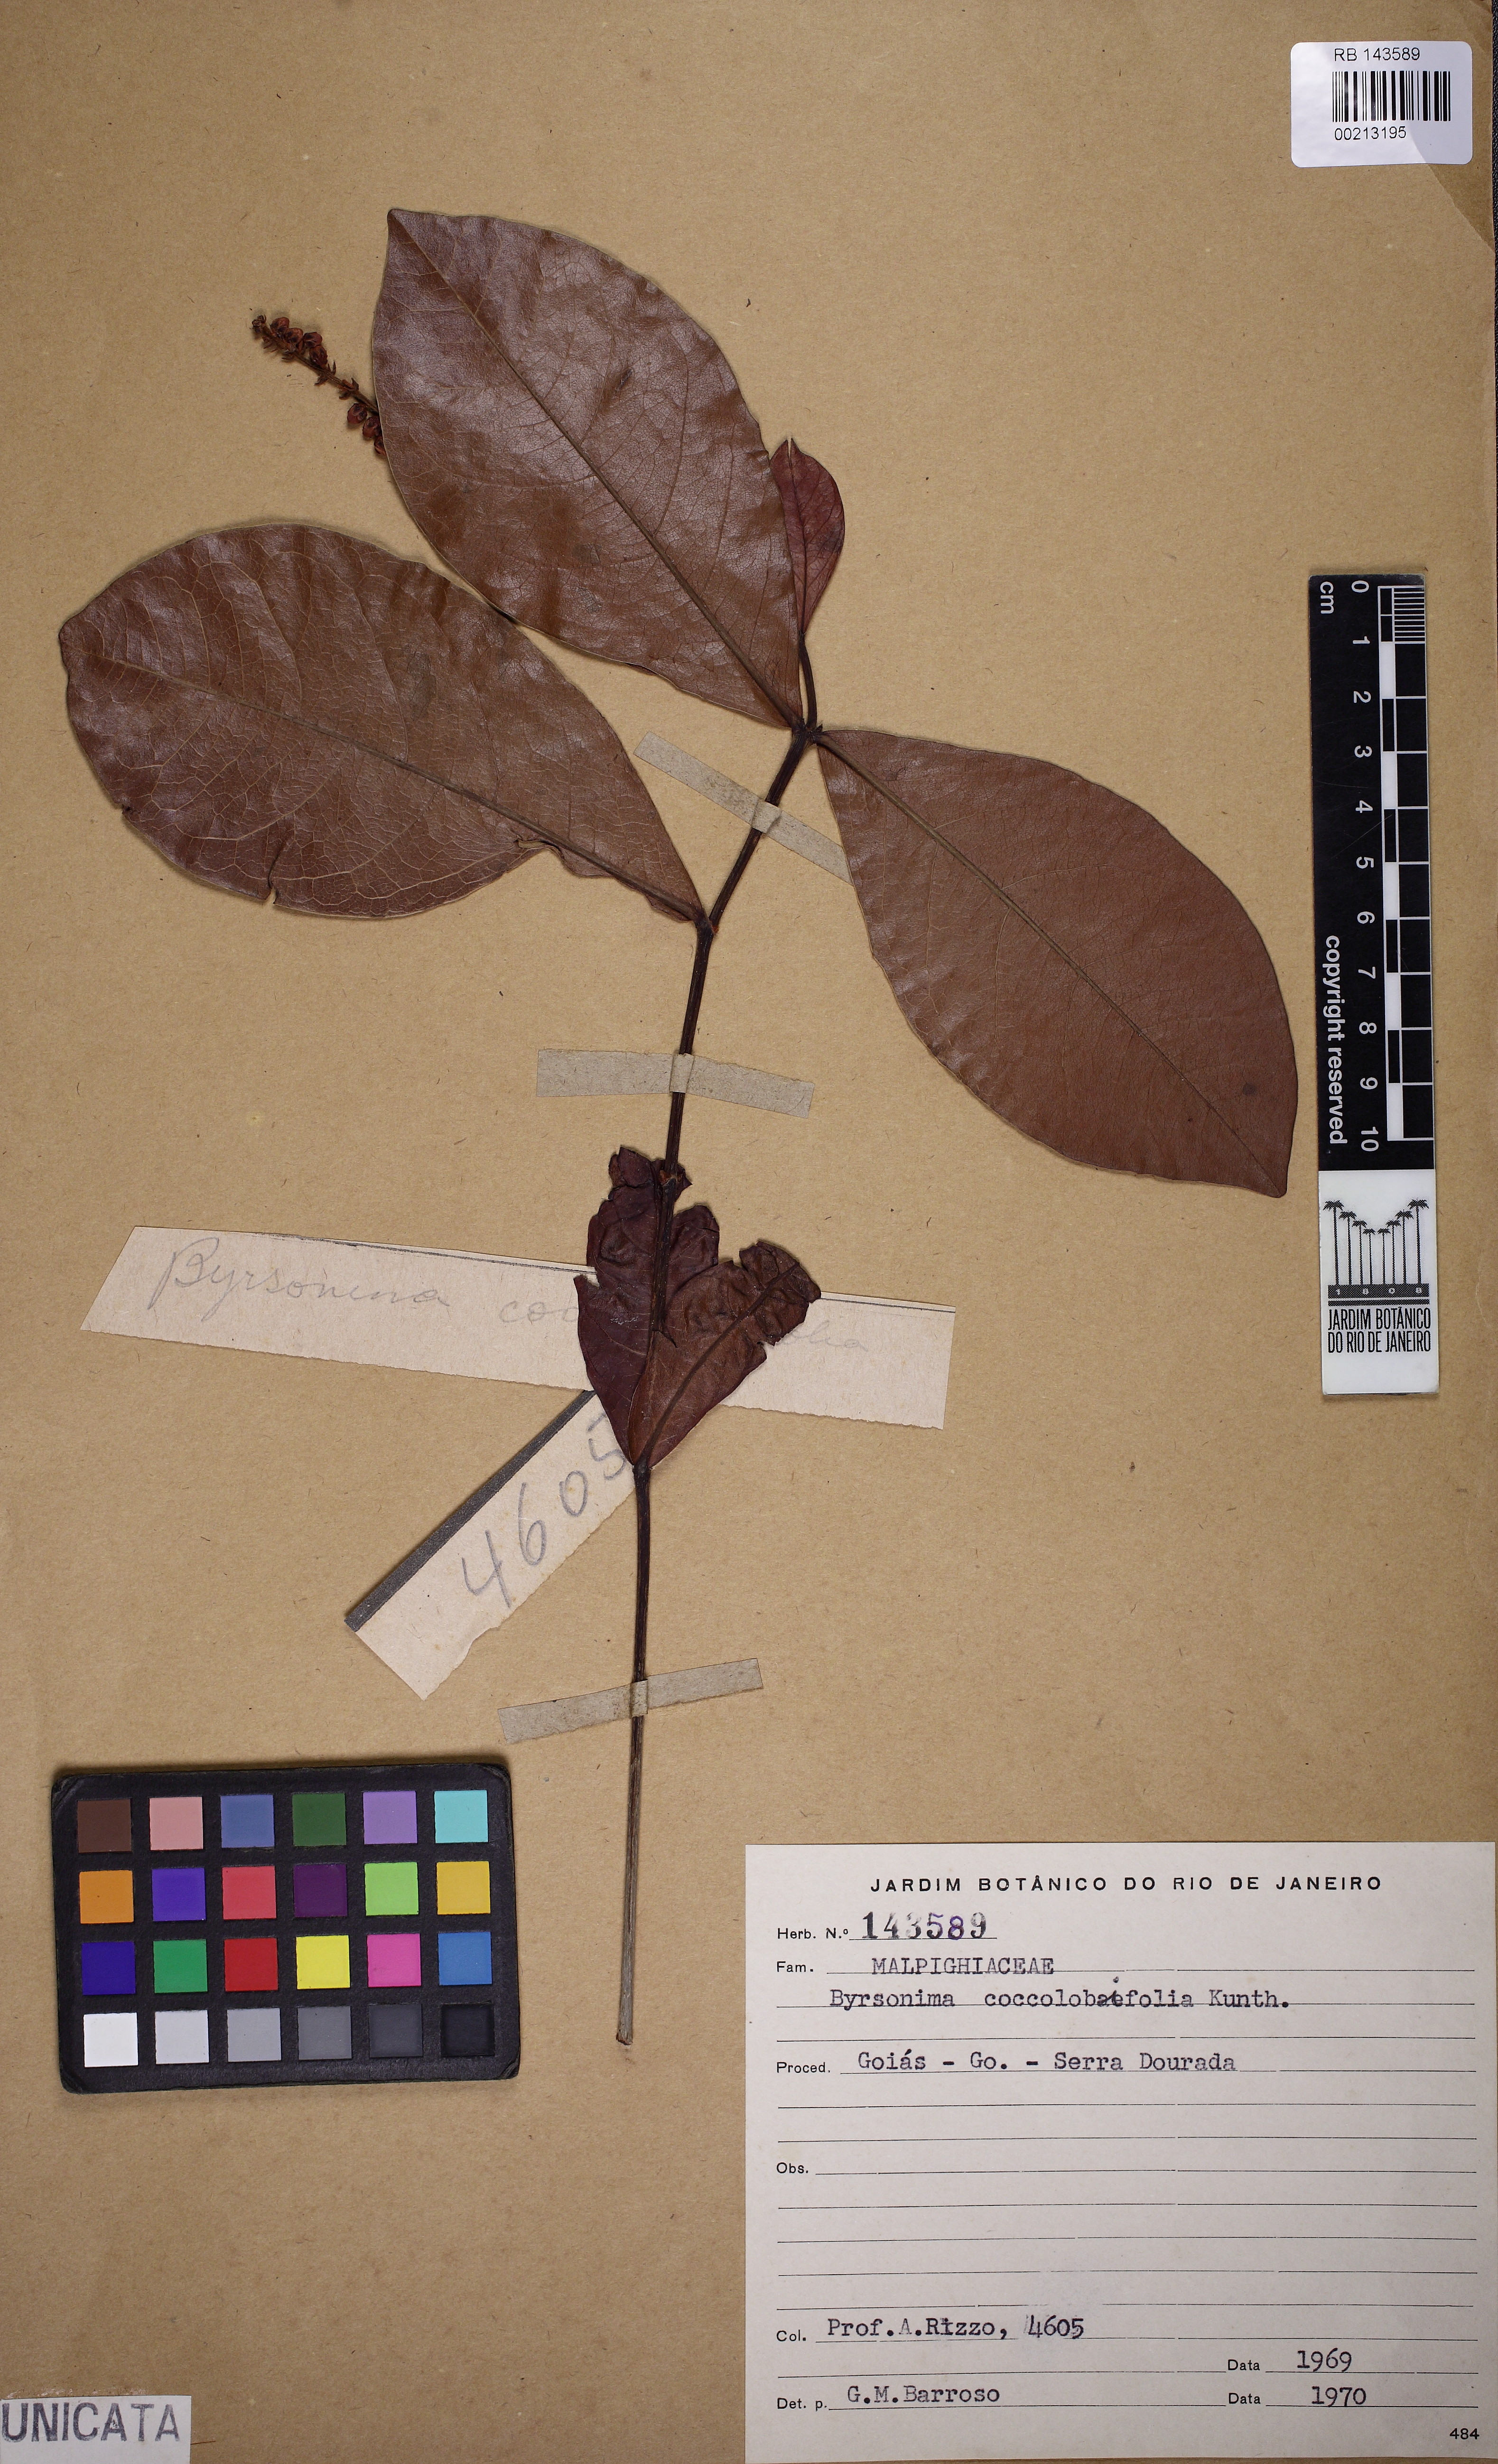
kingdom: Plantae
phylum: Tracheophyta
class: Magnoliopsida
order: Malpighiales
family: Malpighiaceae
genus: Byrsonima
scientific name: Byrsonima coccolobifolia
